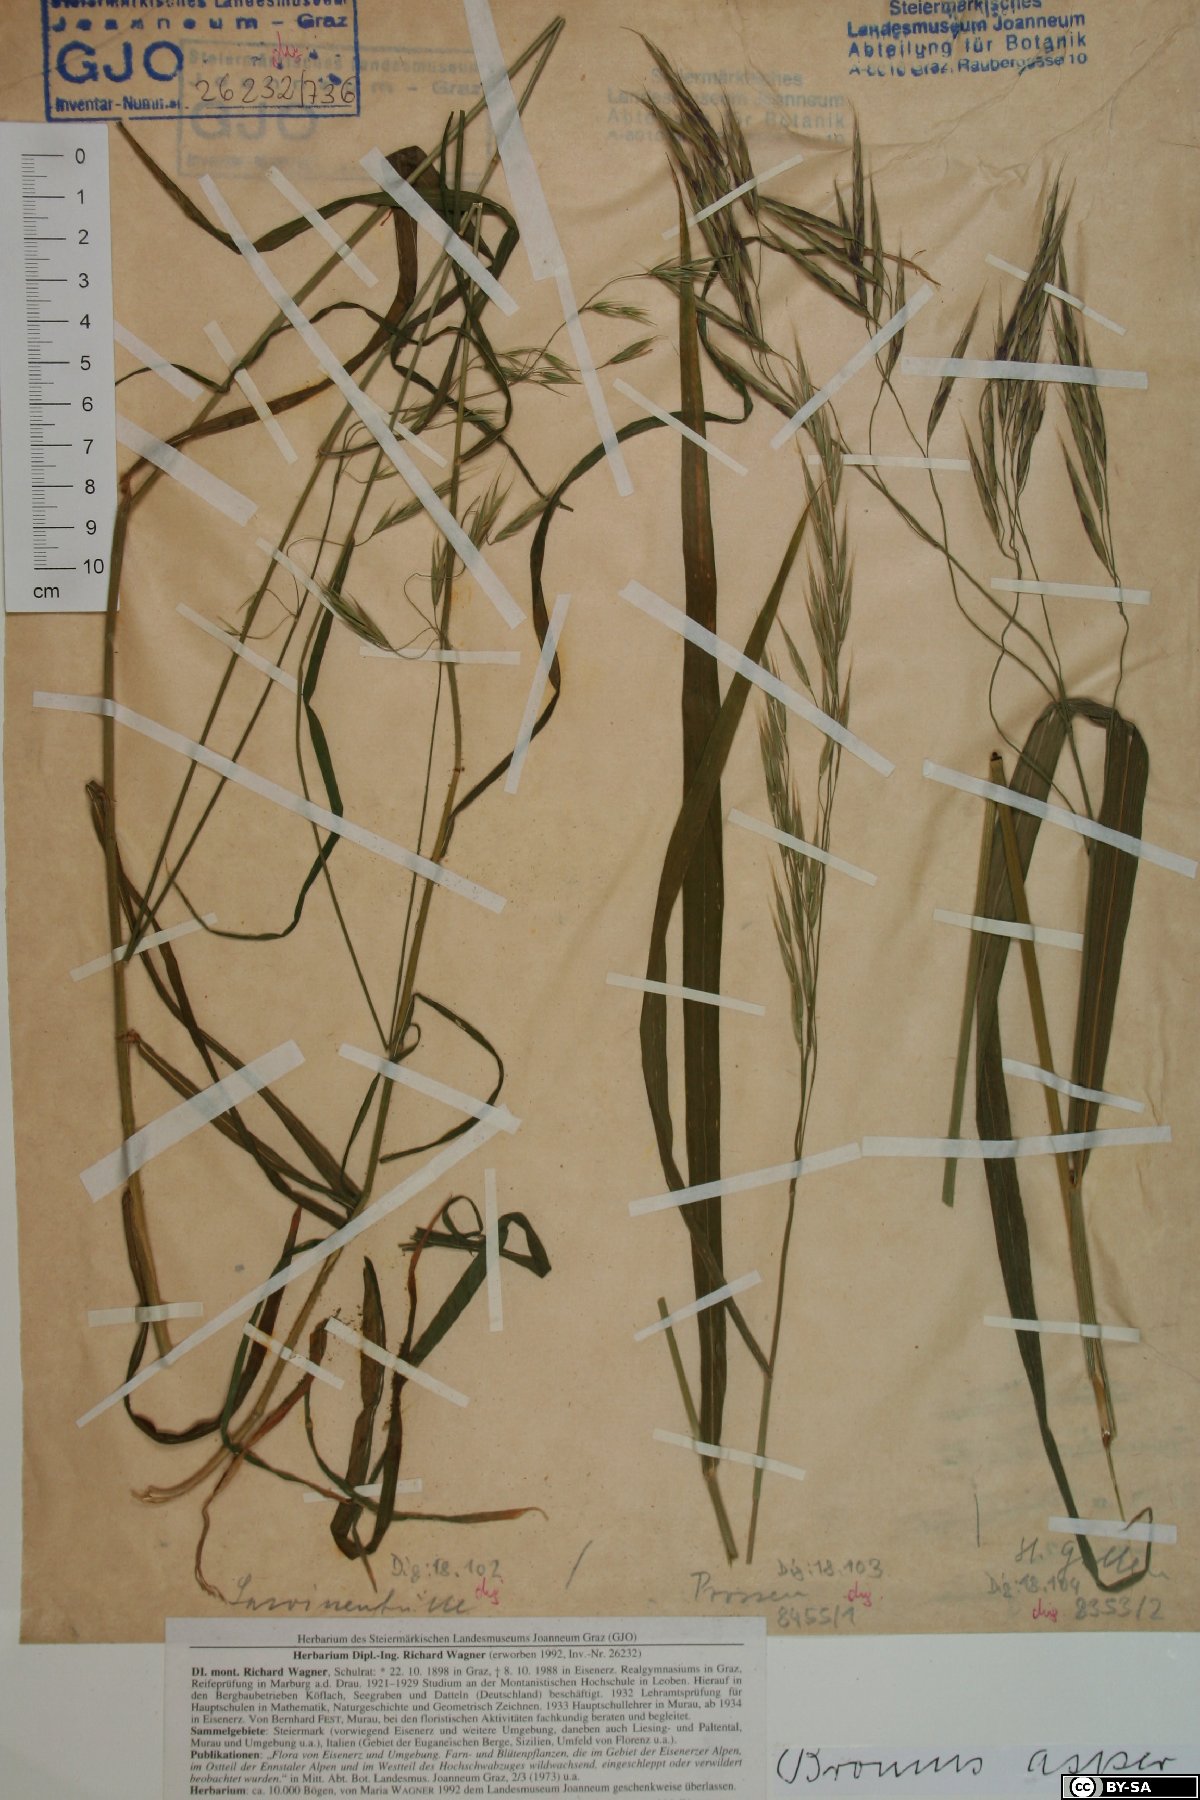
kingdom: Plantae
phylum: Tracheophyta
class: Liliopsida
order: Poales
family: Poaceae
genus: Bromus
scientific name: Bromus ramosus
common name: Hairy brome
